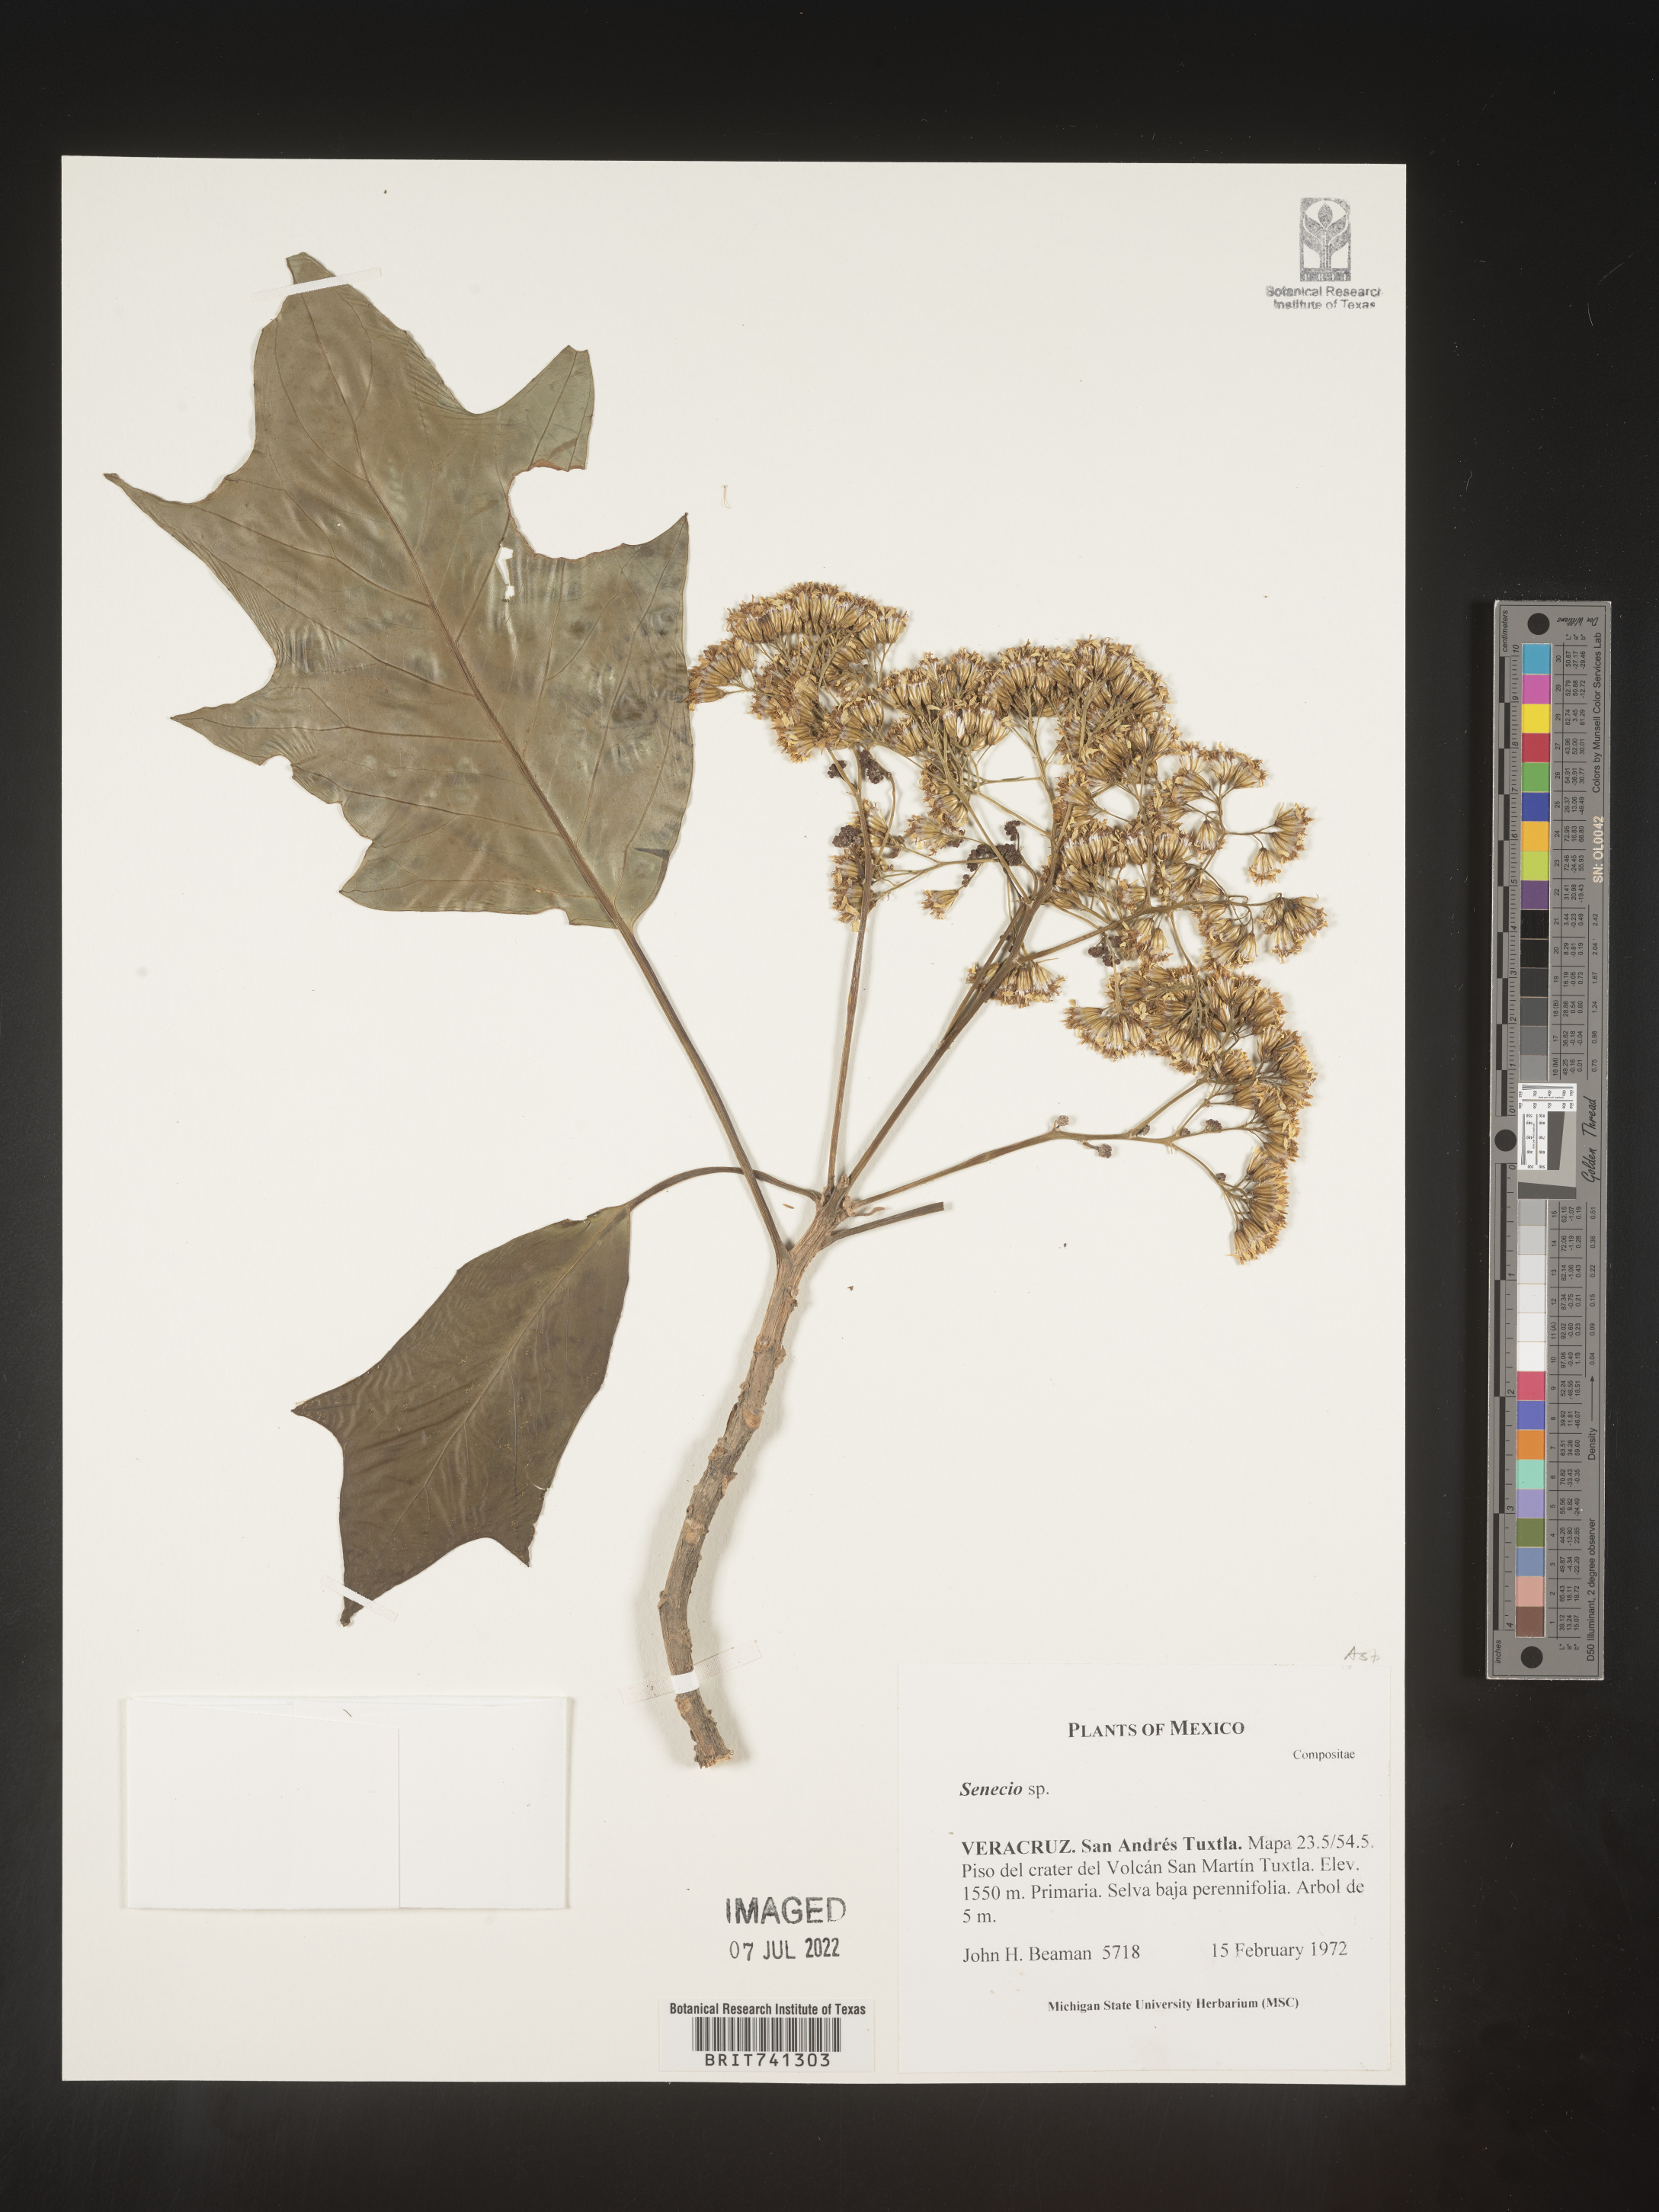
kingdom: Plantae
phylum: Tracheophyta
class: Magnoliopsida
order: Asterales
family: Asteraceae
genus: Senecio
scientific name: Senecio
